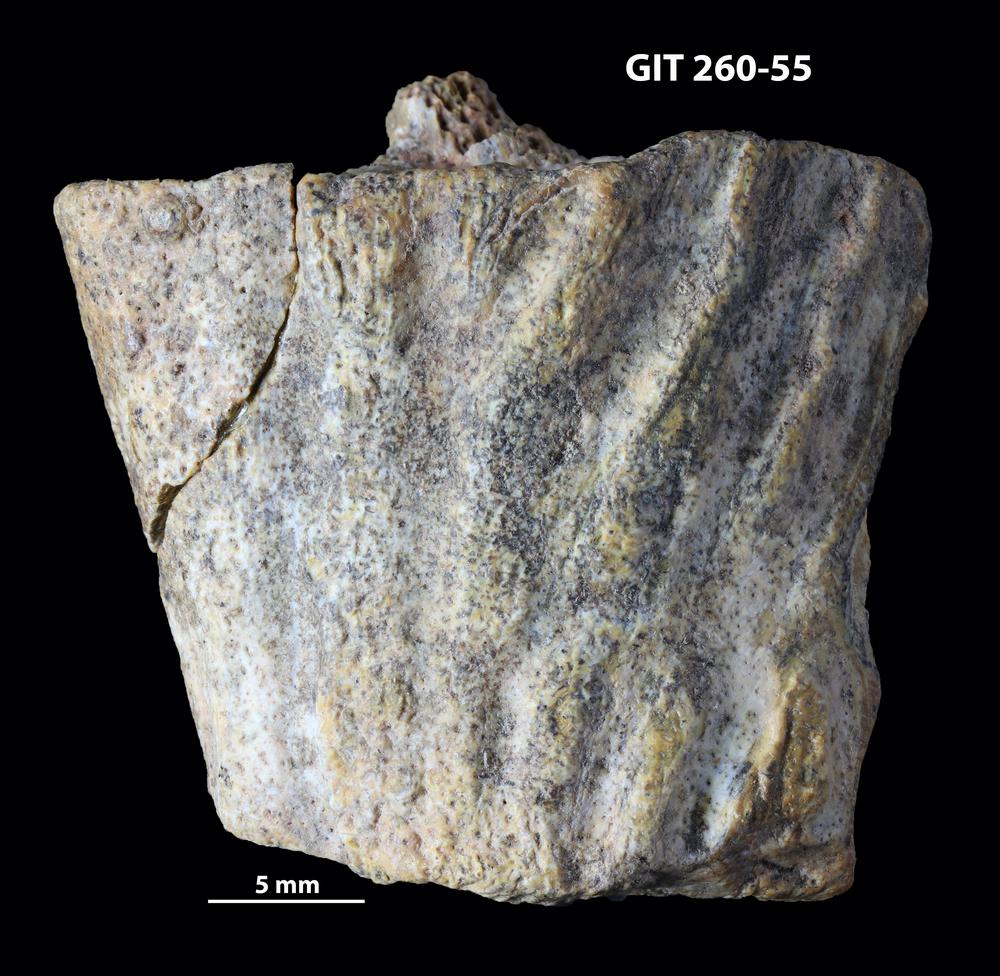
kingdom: Animalia
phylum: Chordata
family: Homostiidae
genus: Homostius
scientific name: Homostius
